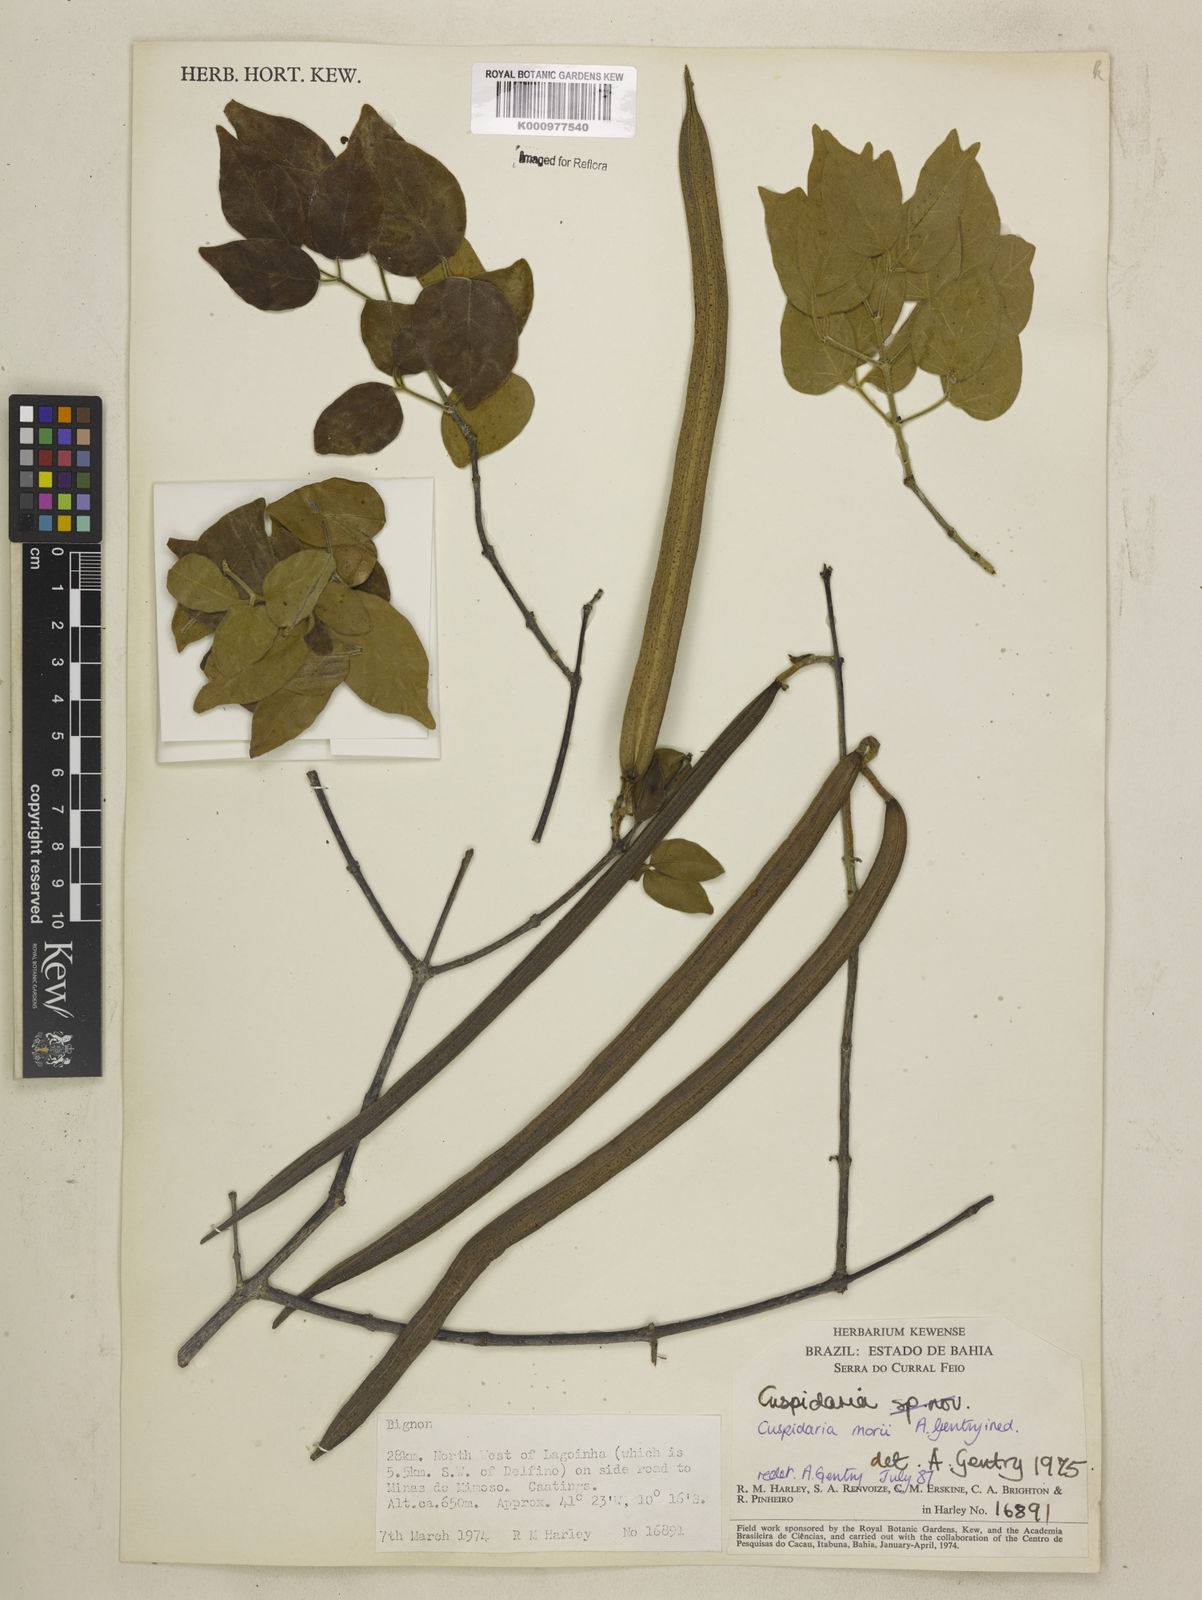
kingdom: Plantae
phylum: Tracheophyta
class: Magnoliopsida
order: Lamiales
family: Bignoniaceae
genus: Cuspidaria
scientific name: Cuspidaria
